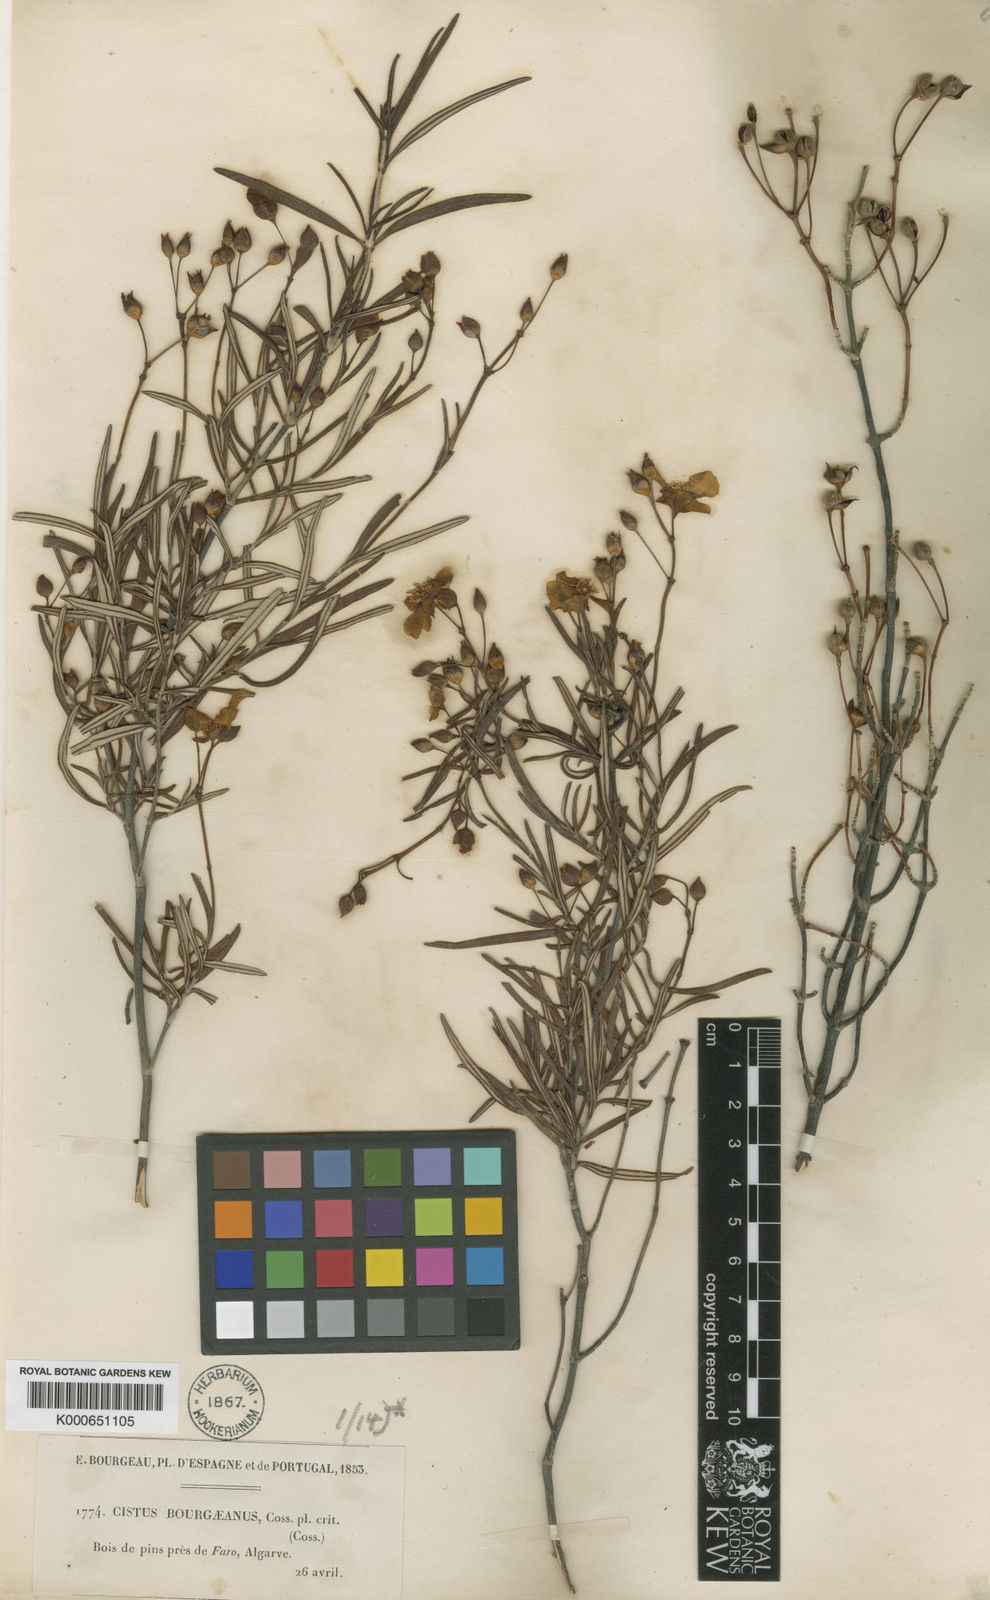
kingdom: Plantae
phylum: Tracheophyta
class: Magnoliopsida
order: Malvales
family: Cistaceae
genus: Cistus
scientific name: Cistus libanotis
